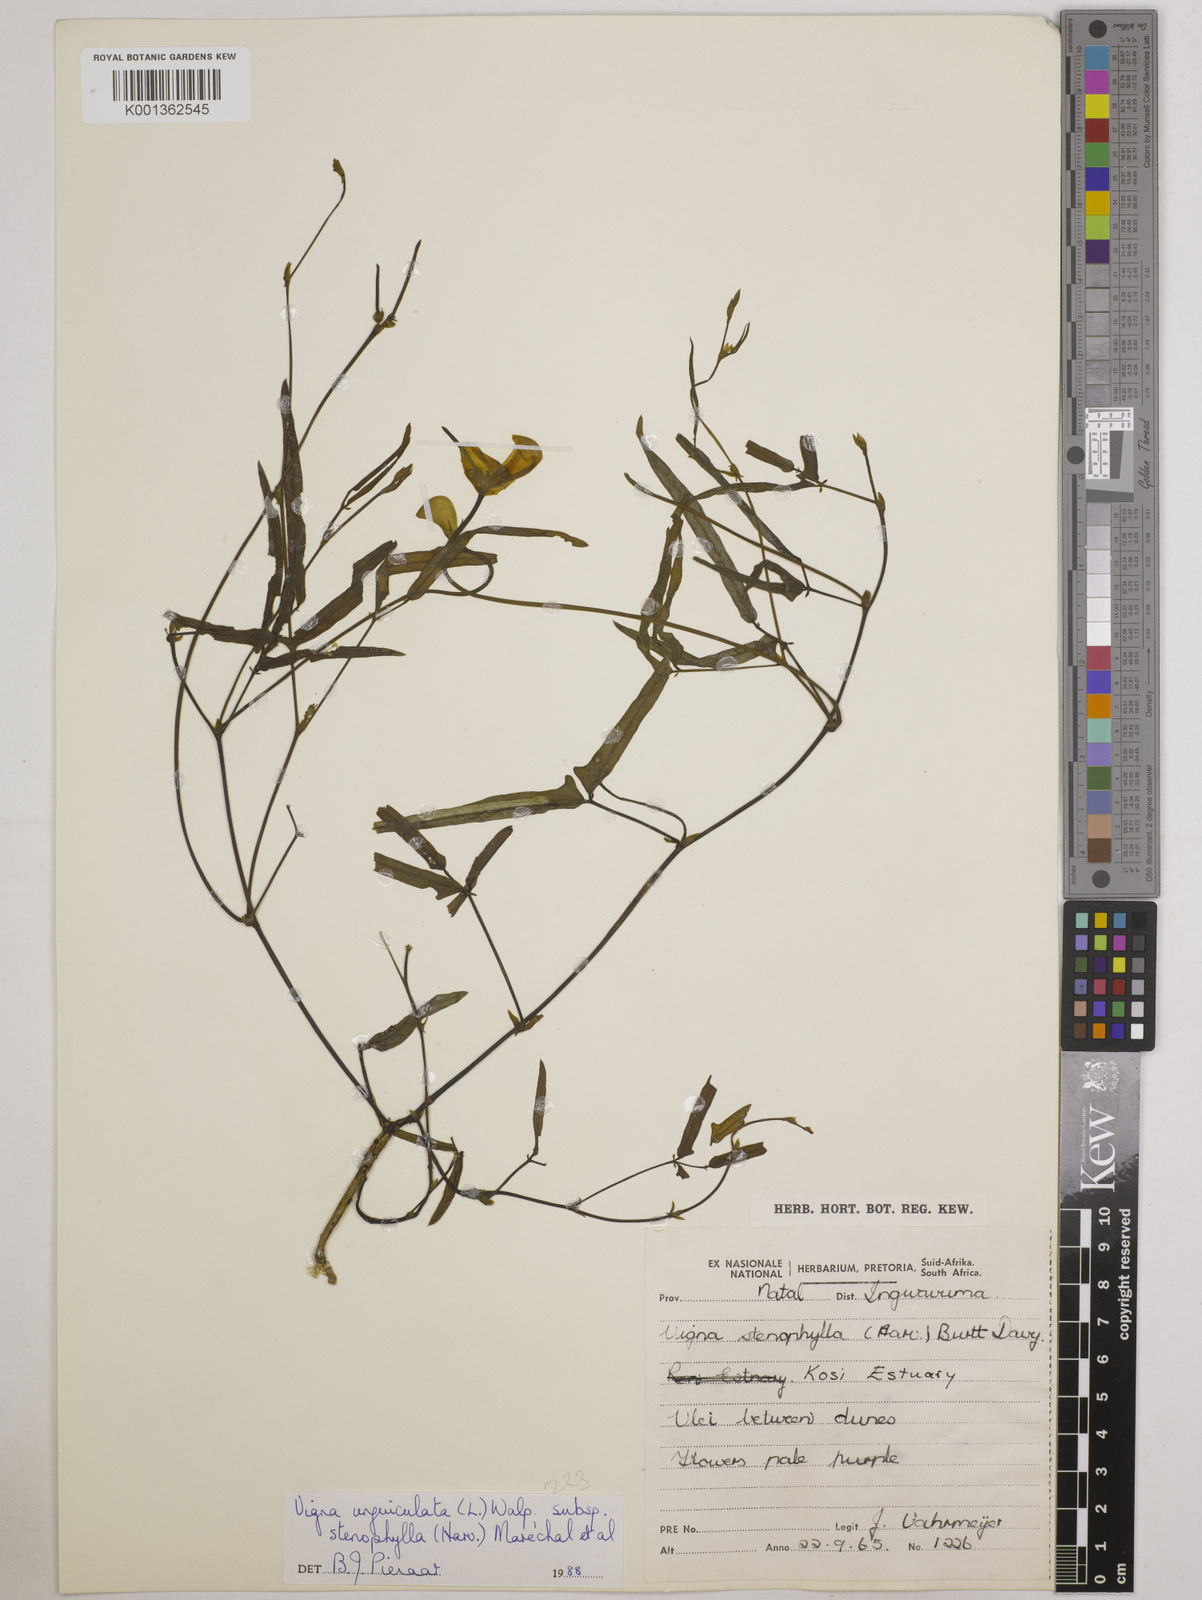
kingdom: Plantae
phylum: Tracheophyta
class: Magnoliopsida
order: Fabales
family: Fabaceae
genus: Vigna
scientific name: Vigna
